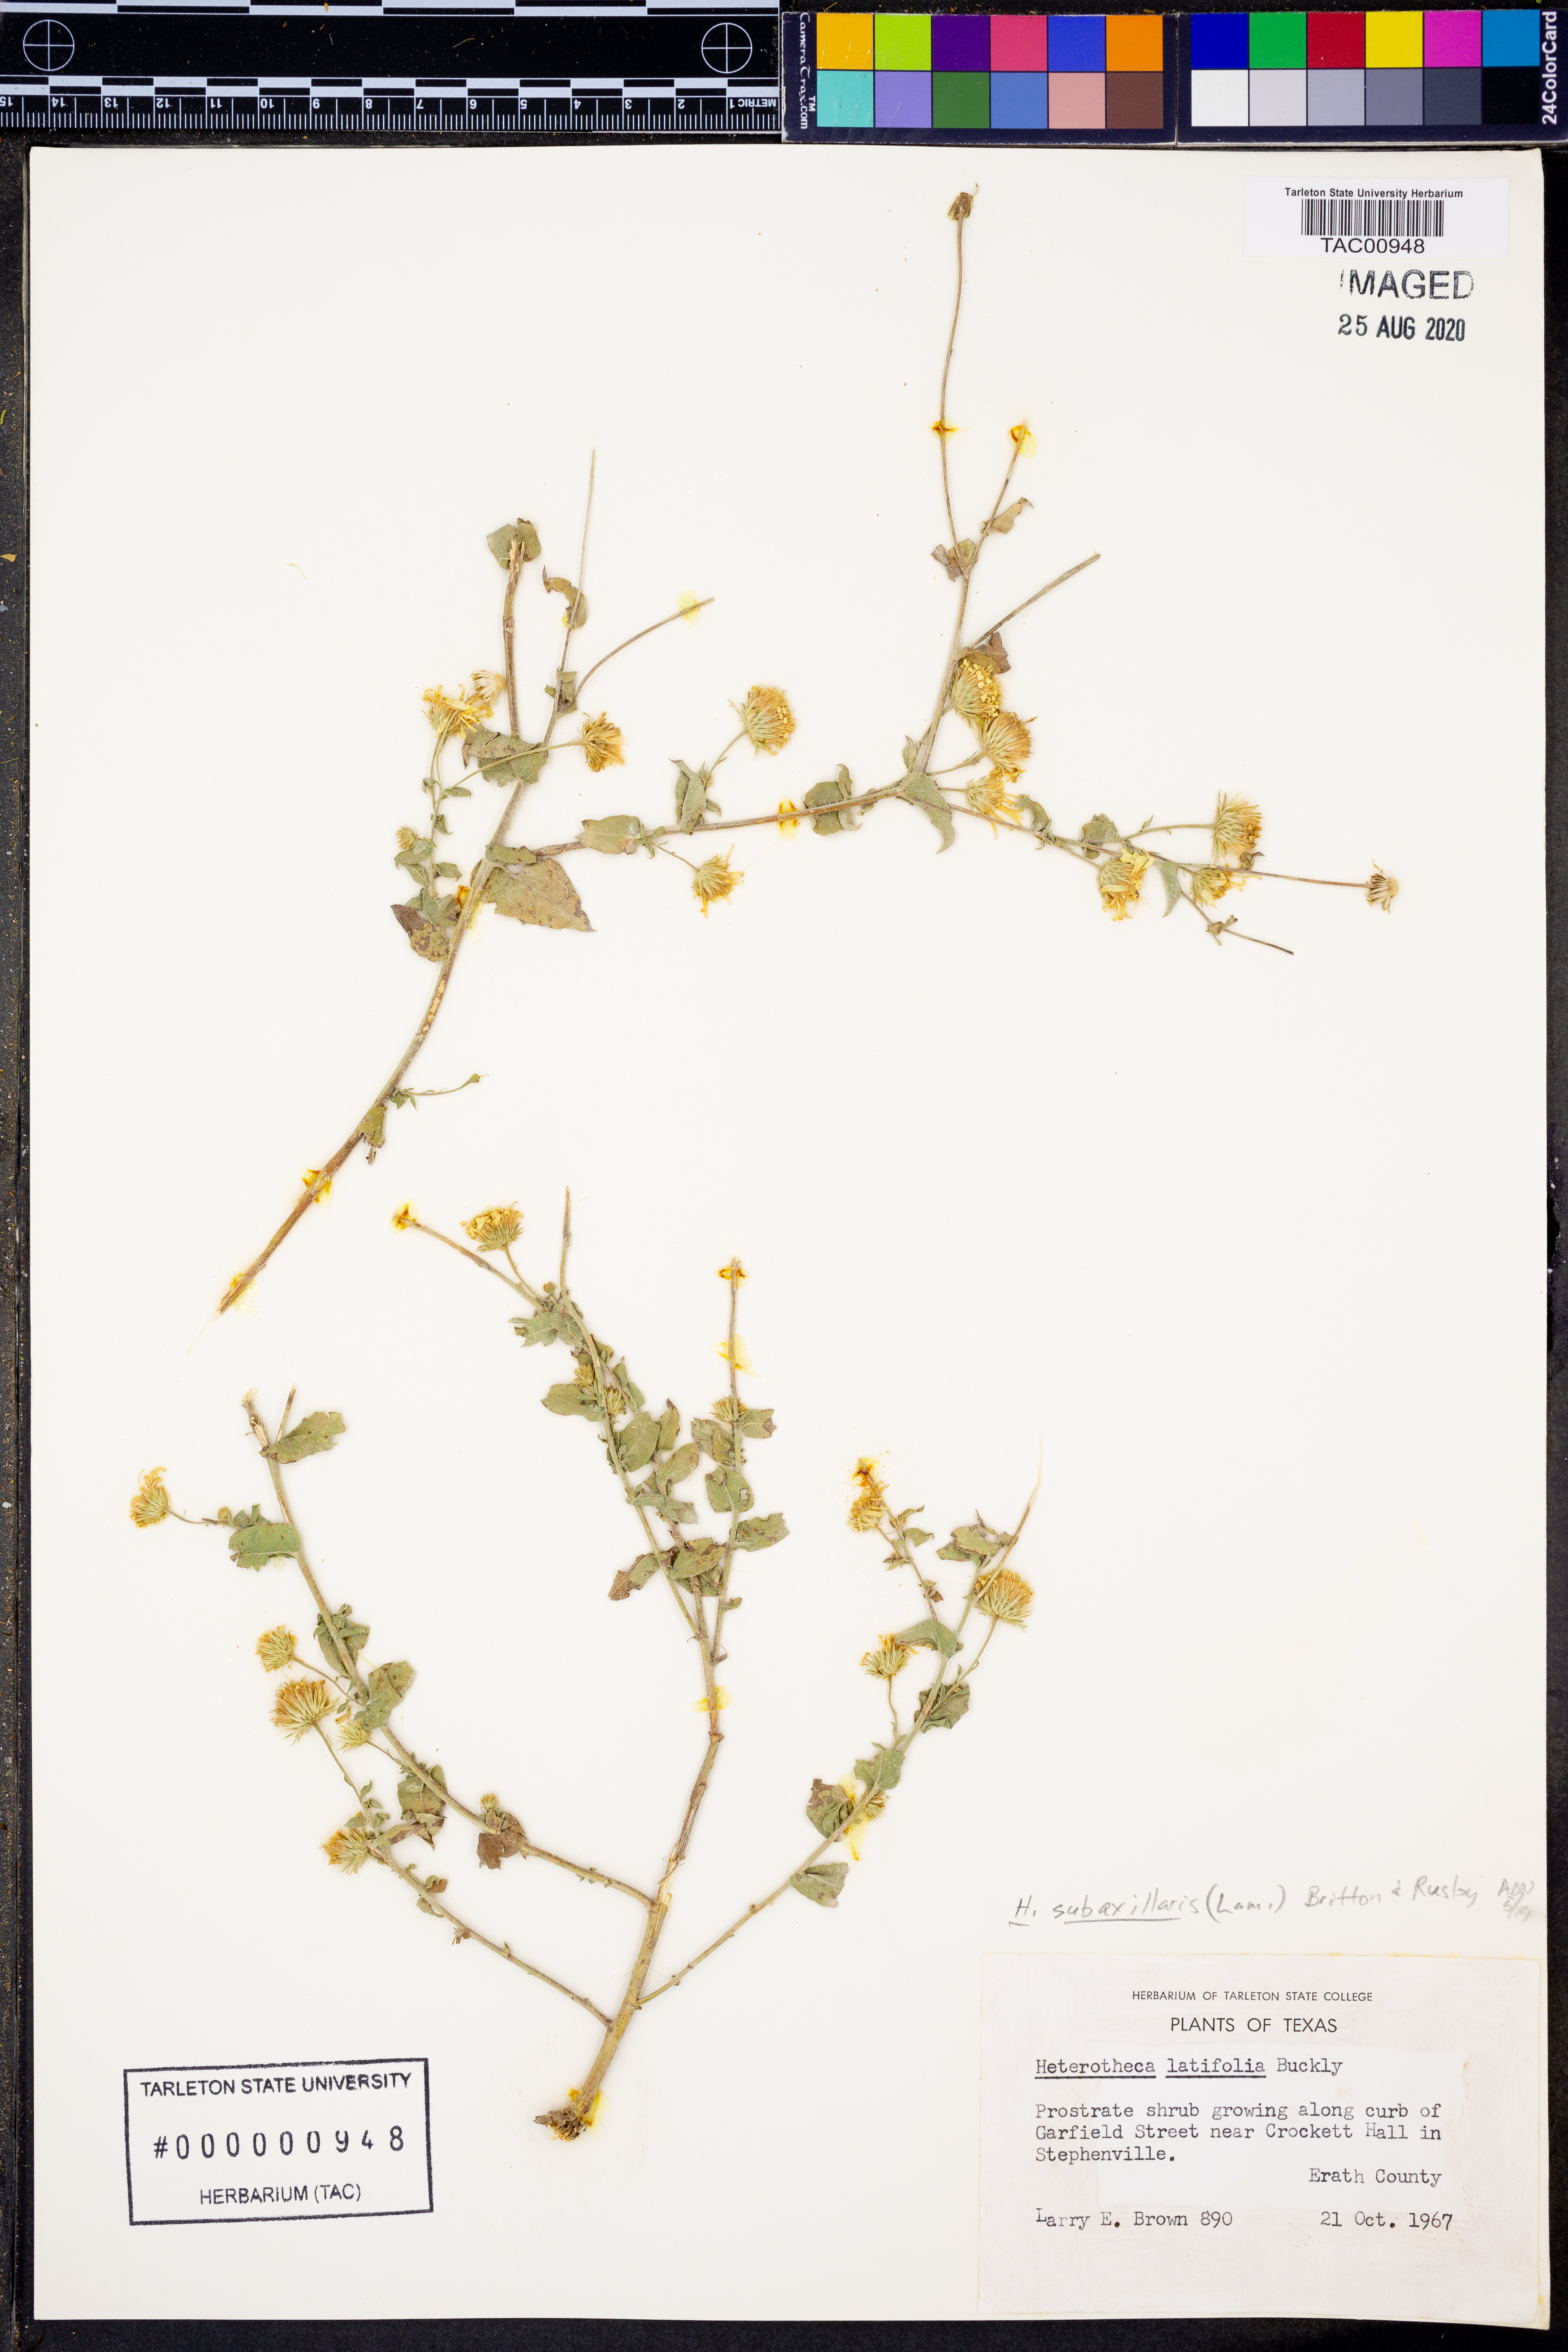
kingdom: Plantae
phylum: Tracheophyta
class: Magnoliopsida
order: Asterales
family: Asteraceae
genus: Heterotheca
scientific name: Heterotheca subaxillaris
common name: Camphorweed
